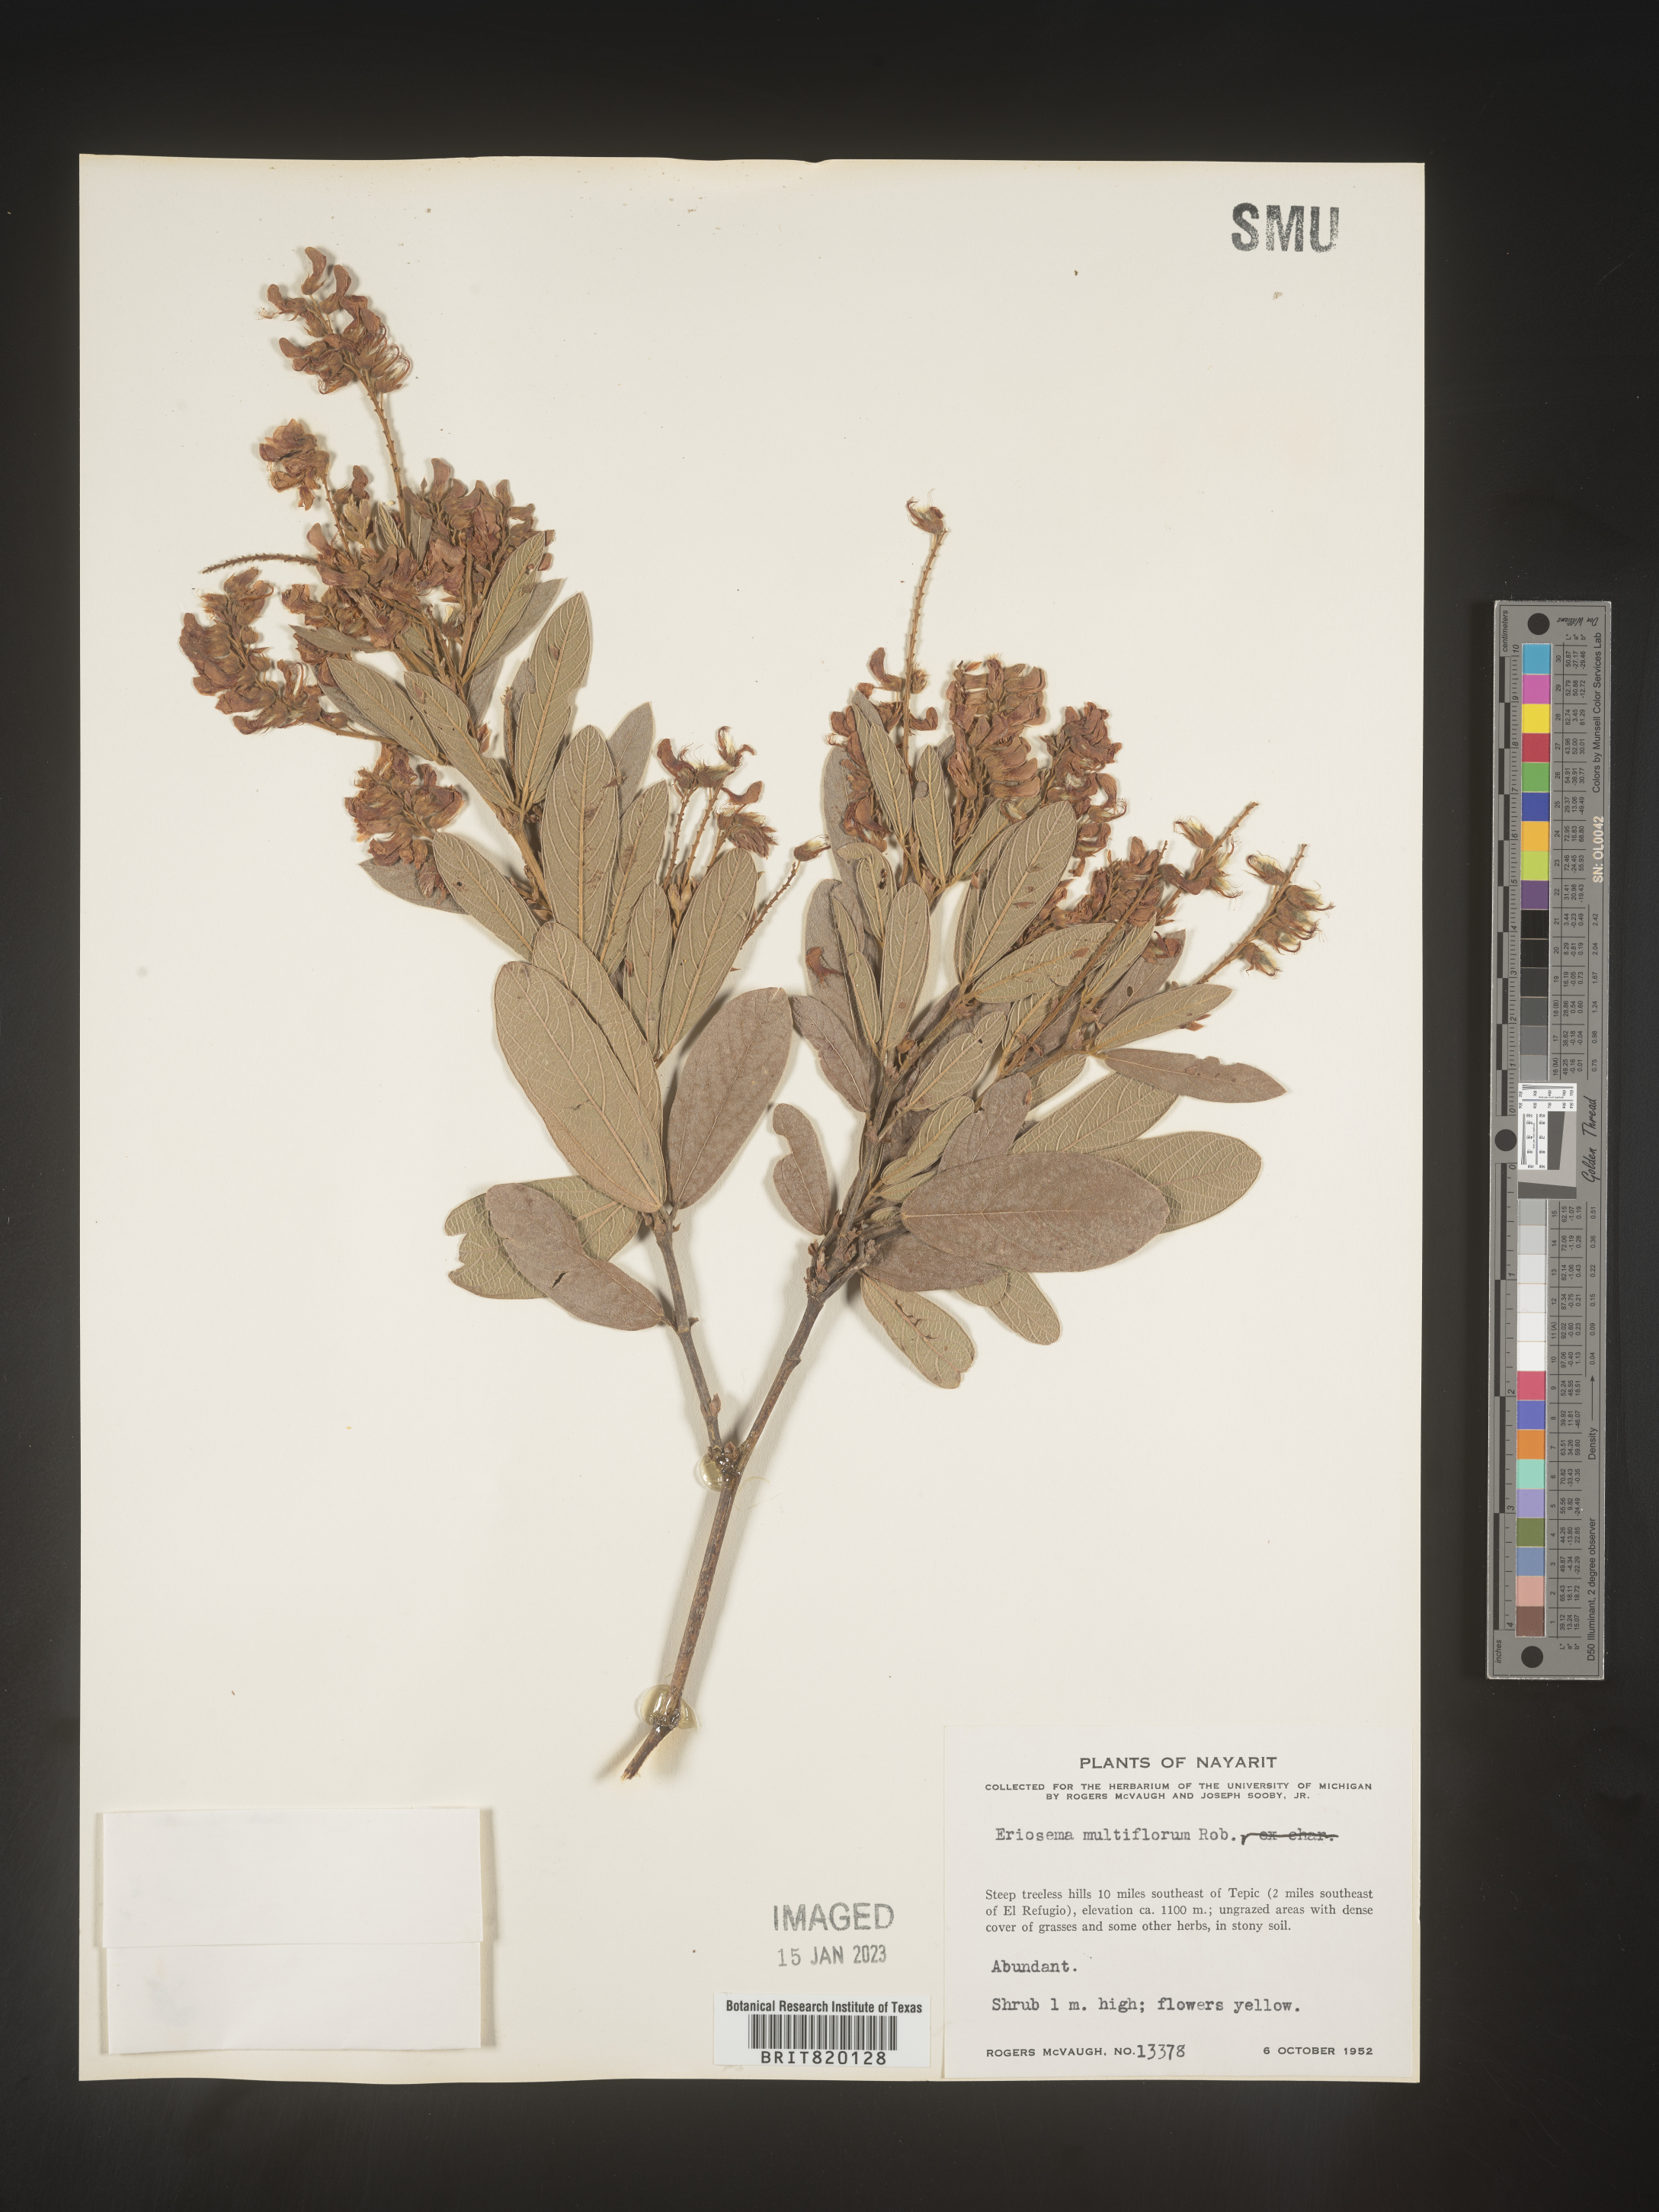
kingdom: Plantae
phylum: Tracheophyta
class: Magnoliopsida
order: Fabales
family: Fabaceae
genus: Eriosema
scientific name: Eriosema
